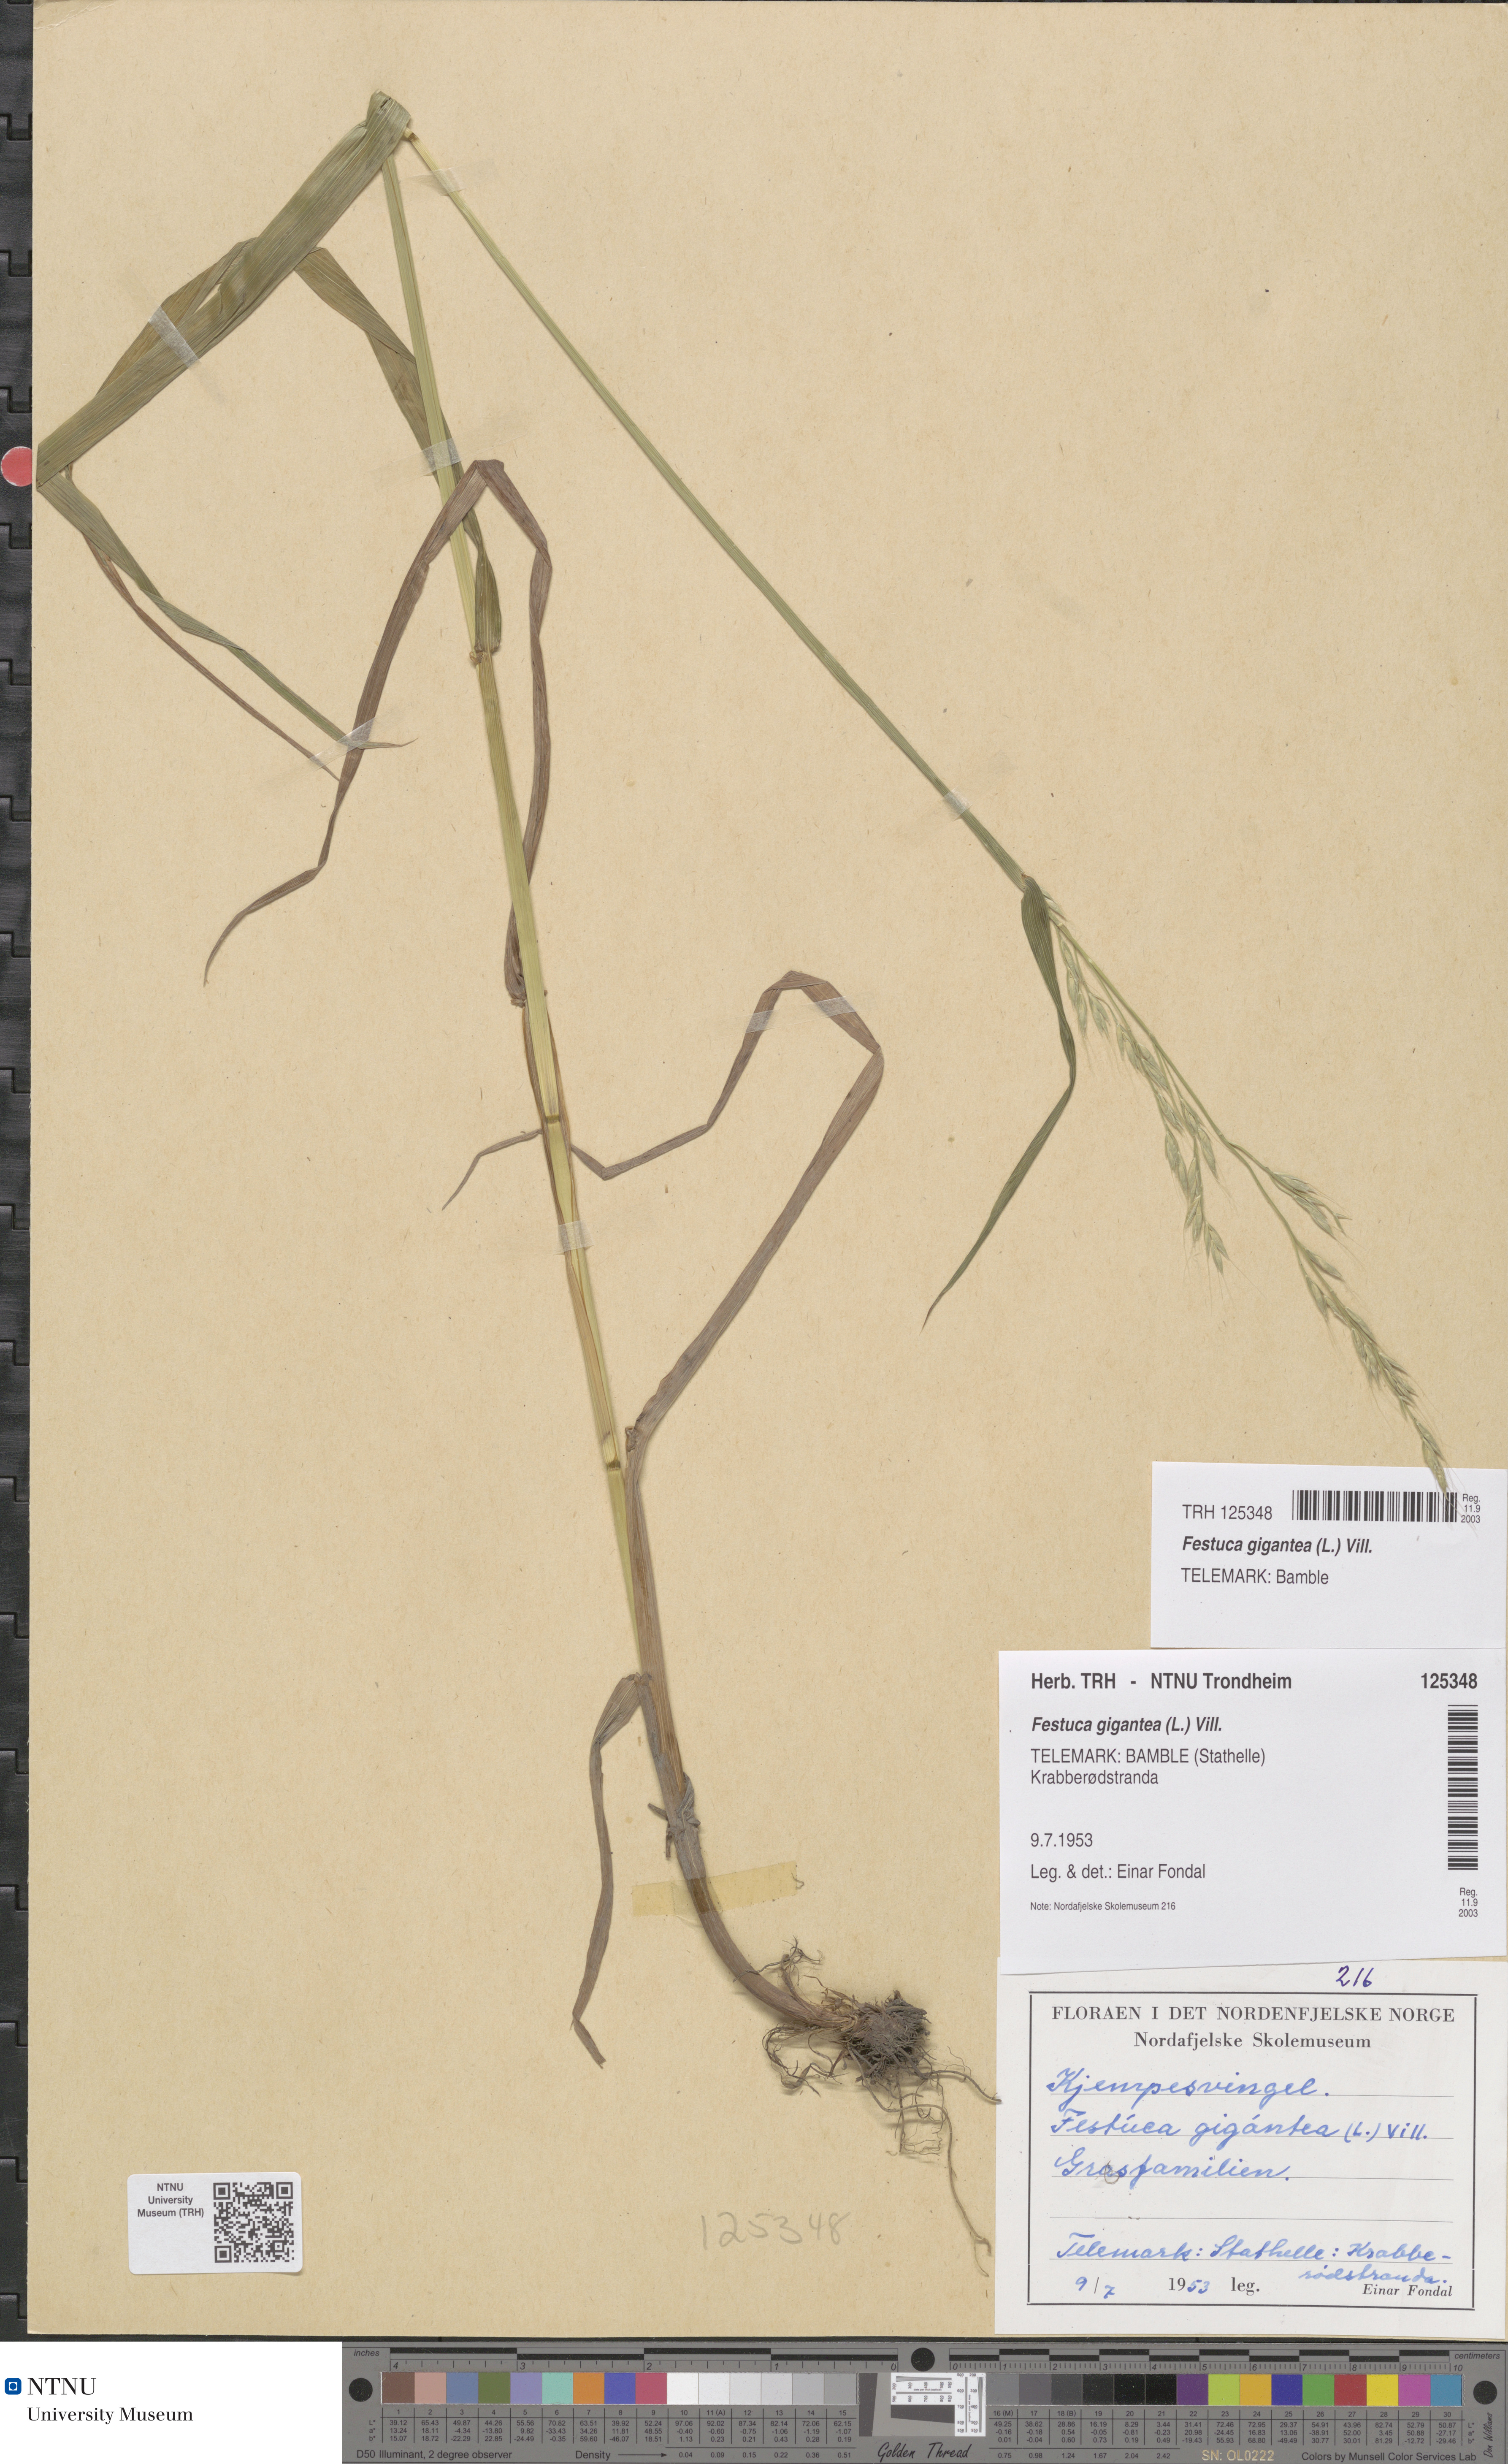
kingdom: Plantae
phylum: Tracheophyta
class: Liliopsida
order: Poales
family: Poaceae
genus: Lolium
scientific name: Lolium giganteum
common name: Giant fescue
